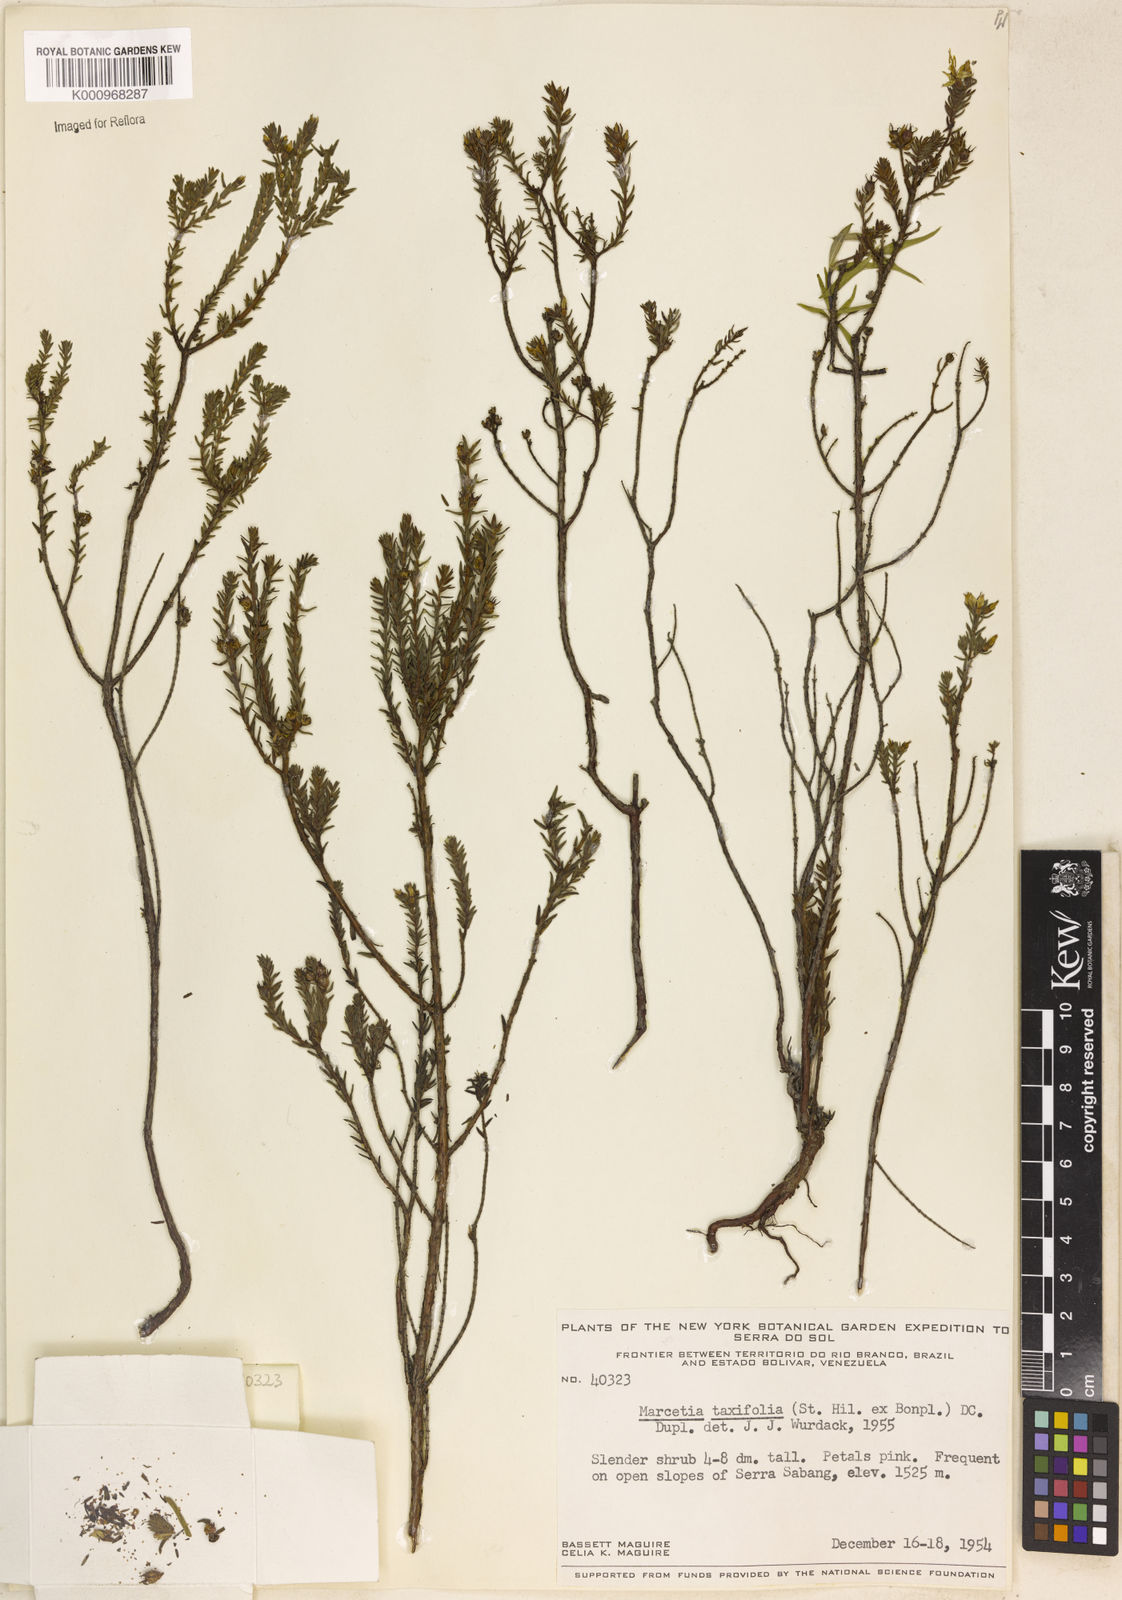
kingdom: Plantae
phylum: Tracheophyta
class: Magnoliopsida
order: Myrtales
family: Melastomataceae
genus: Marcetia
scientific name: Marcetia taxifolia
